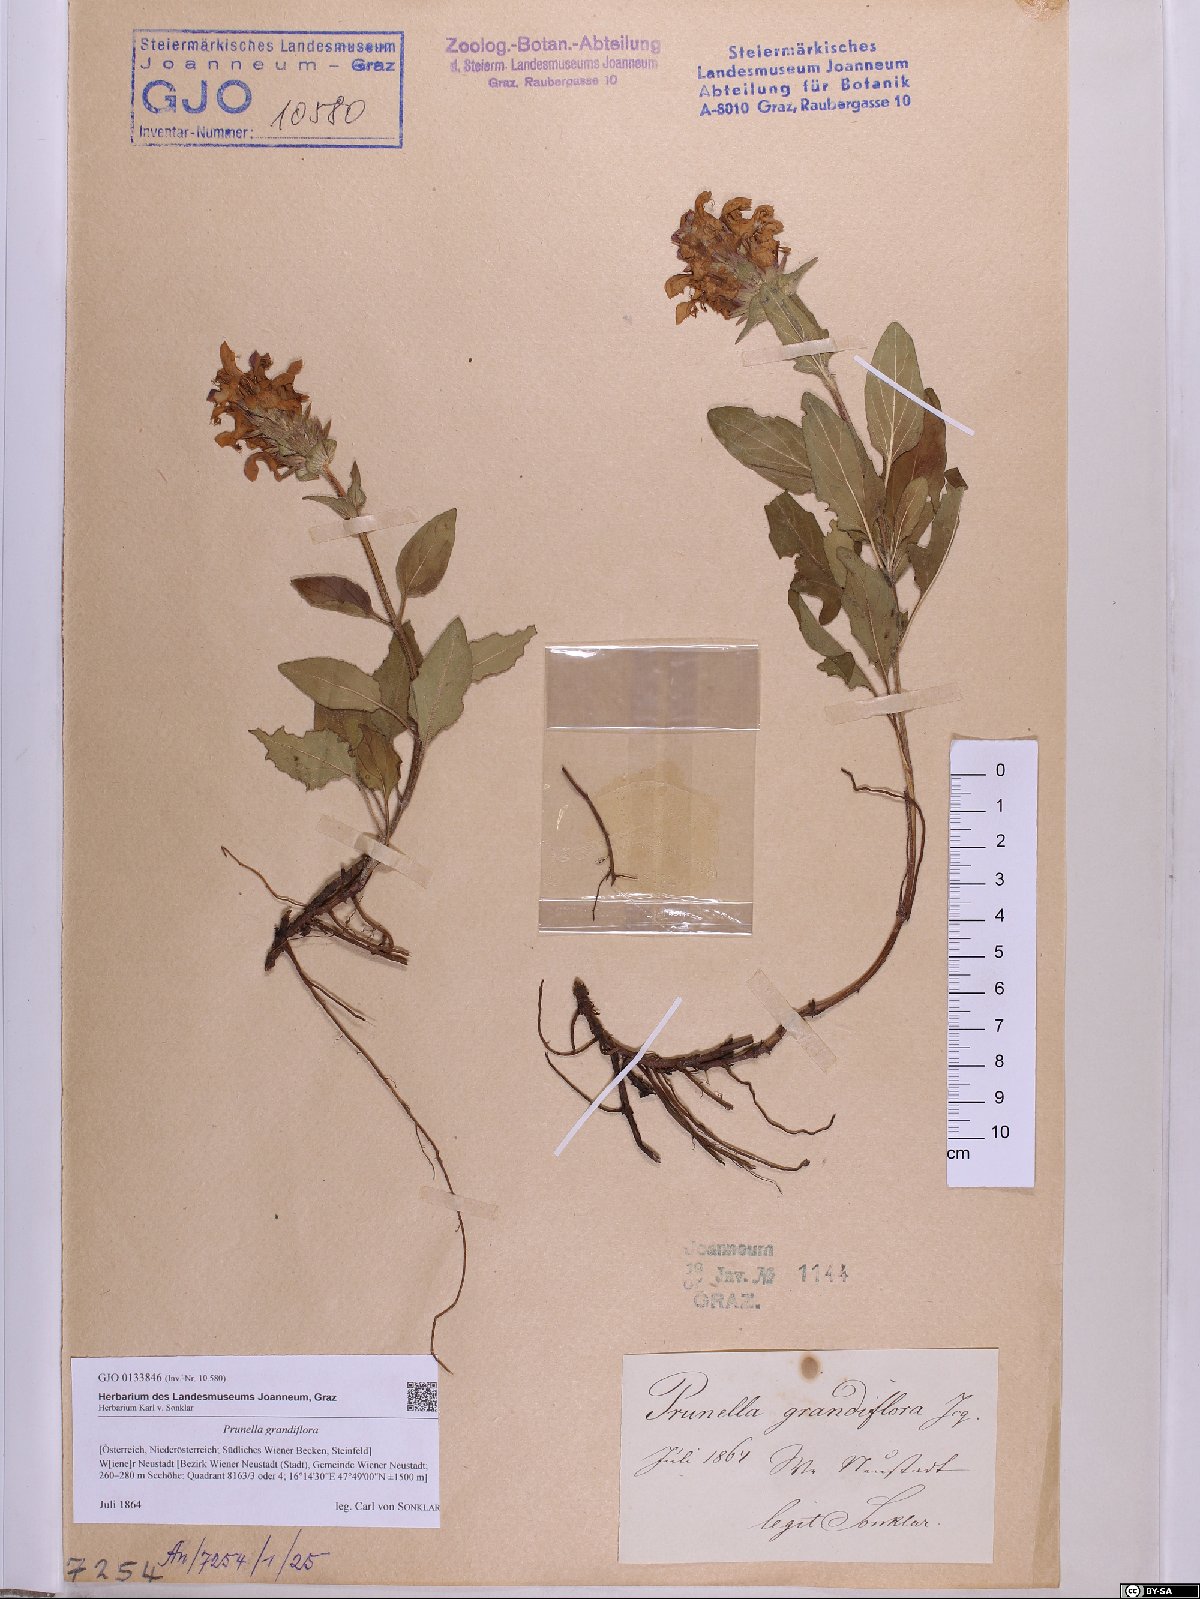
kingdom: Plantae
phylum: Tracheophyta
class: Magnoliopsida
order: Lamiales
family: Lamiaceae
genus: Prunella
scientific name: Prunella grandiflora
